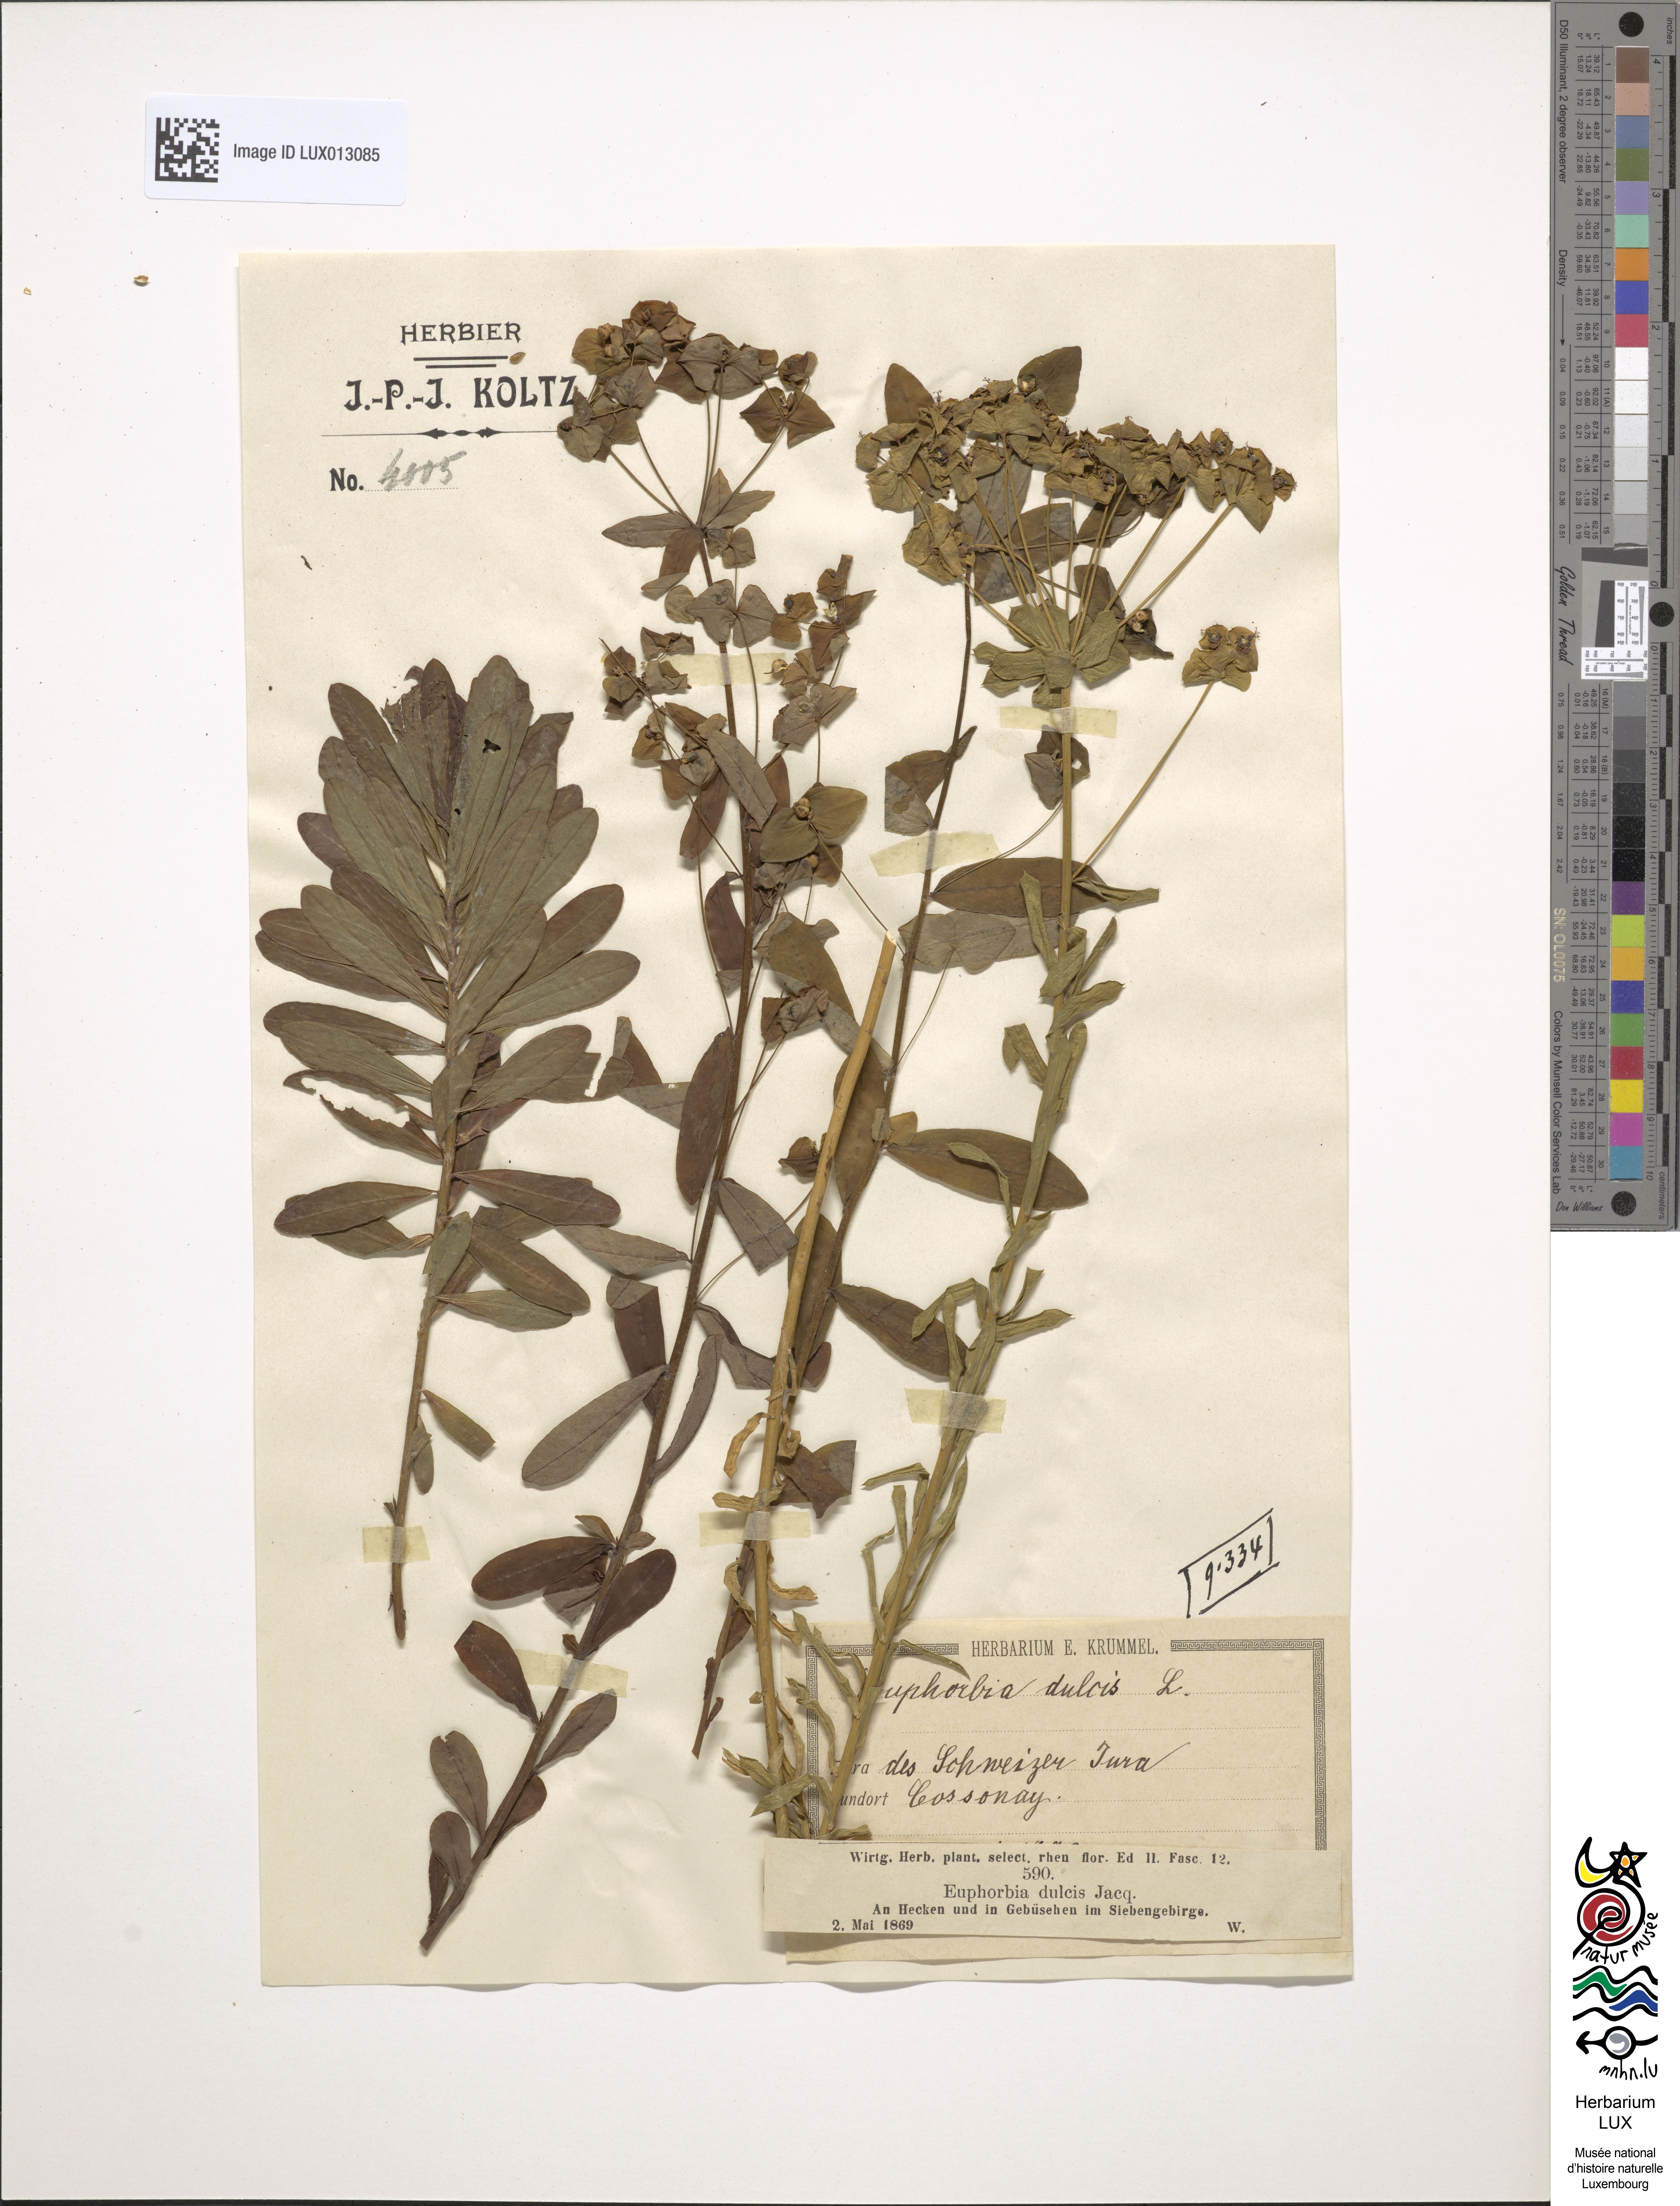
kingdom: Plantae
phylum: Tracheophyta
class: Magnoliopsida
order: Malpighiales
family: Euphorbiaceae
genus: Euphorbia
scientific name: Euphorbia dulcis
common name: Sweet spurge
